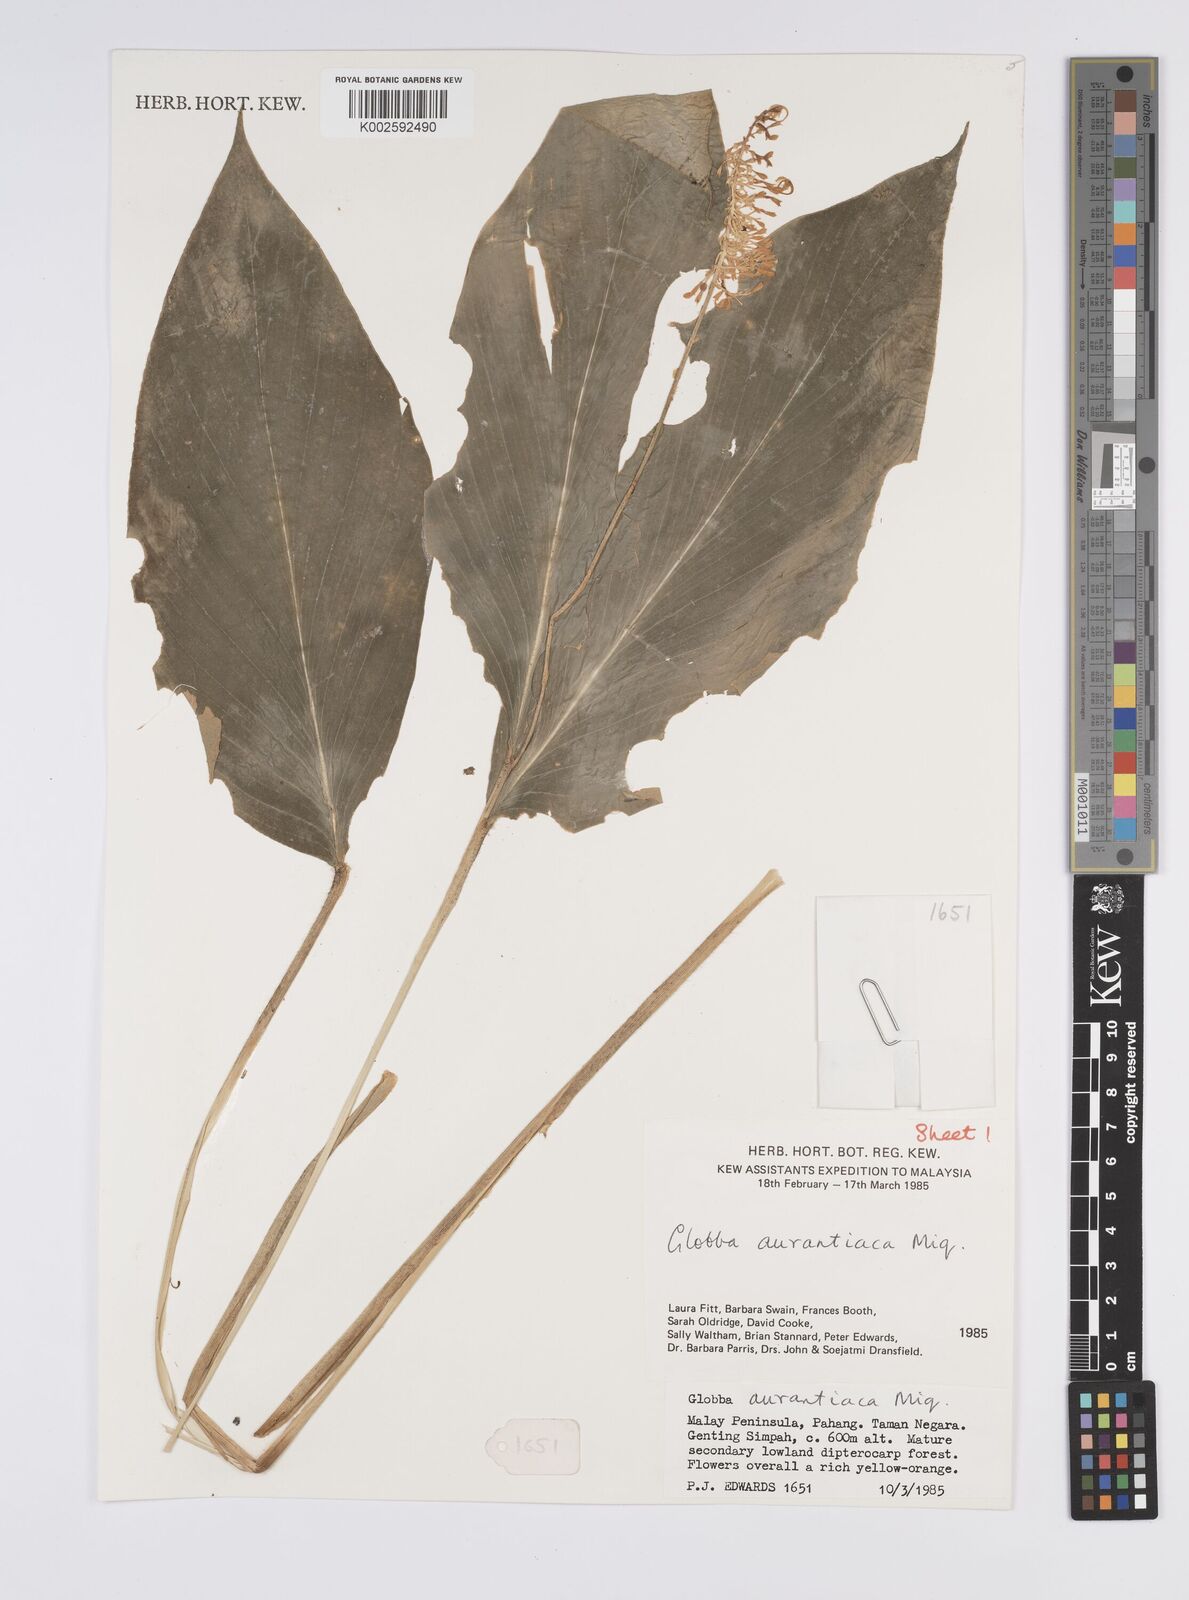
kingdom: Plantae
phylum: Tracheophyta
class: Liliopsida
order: Zingiberales
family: Zingiberaceae
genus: Globba
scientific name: Globba aurantiaca
